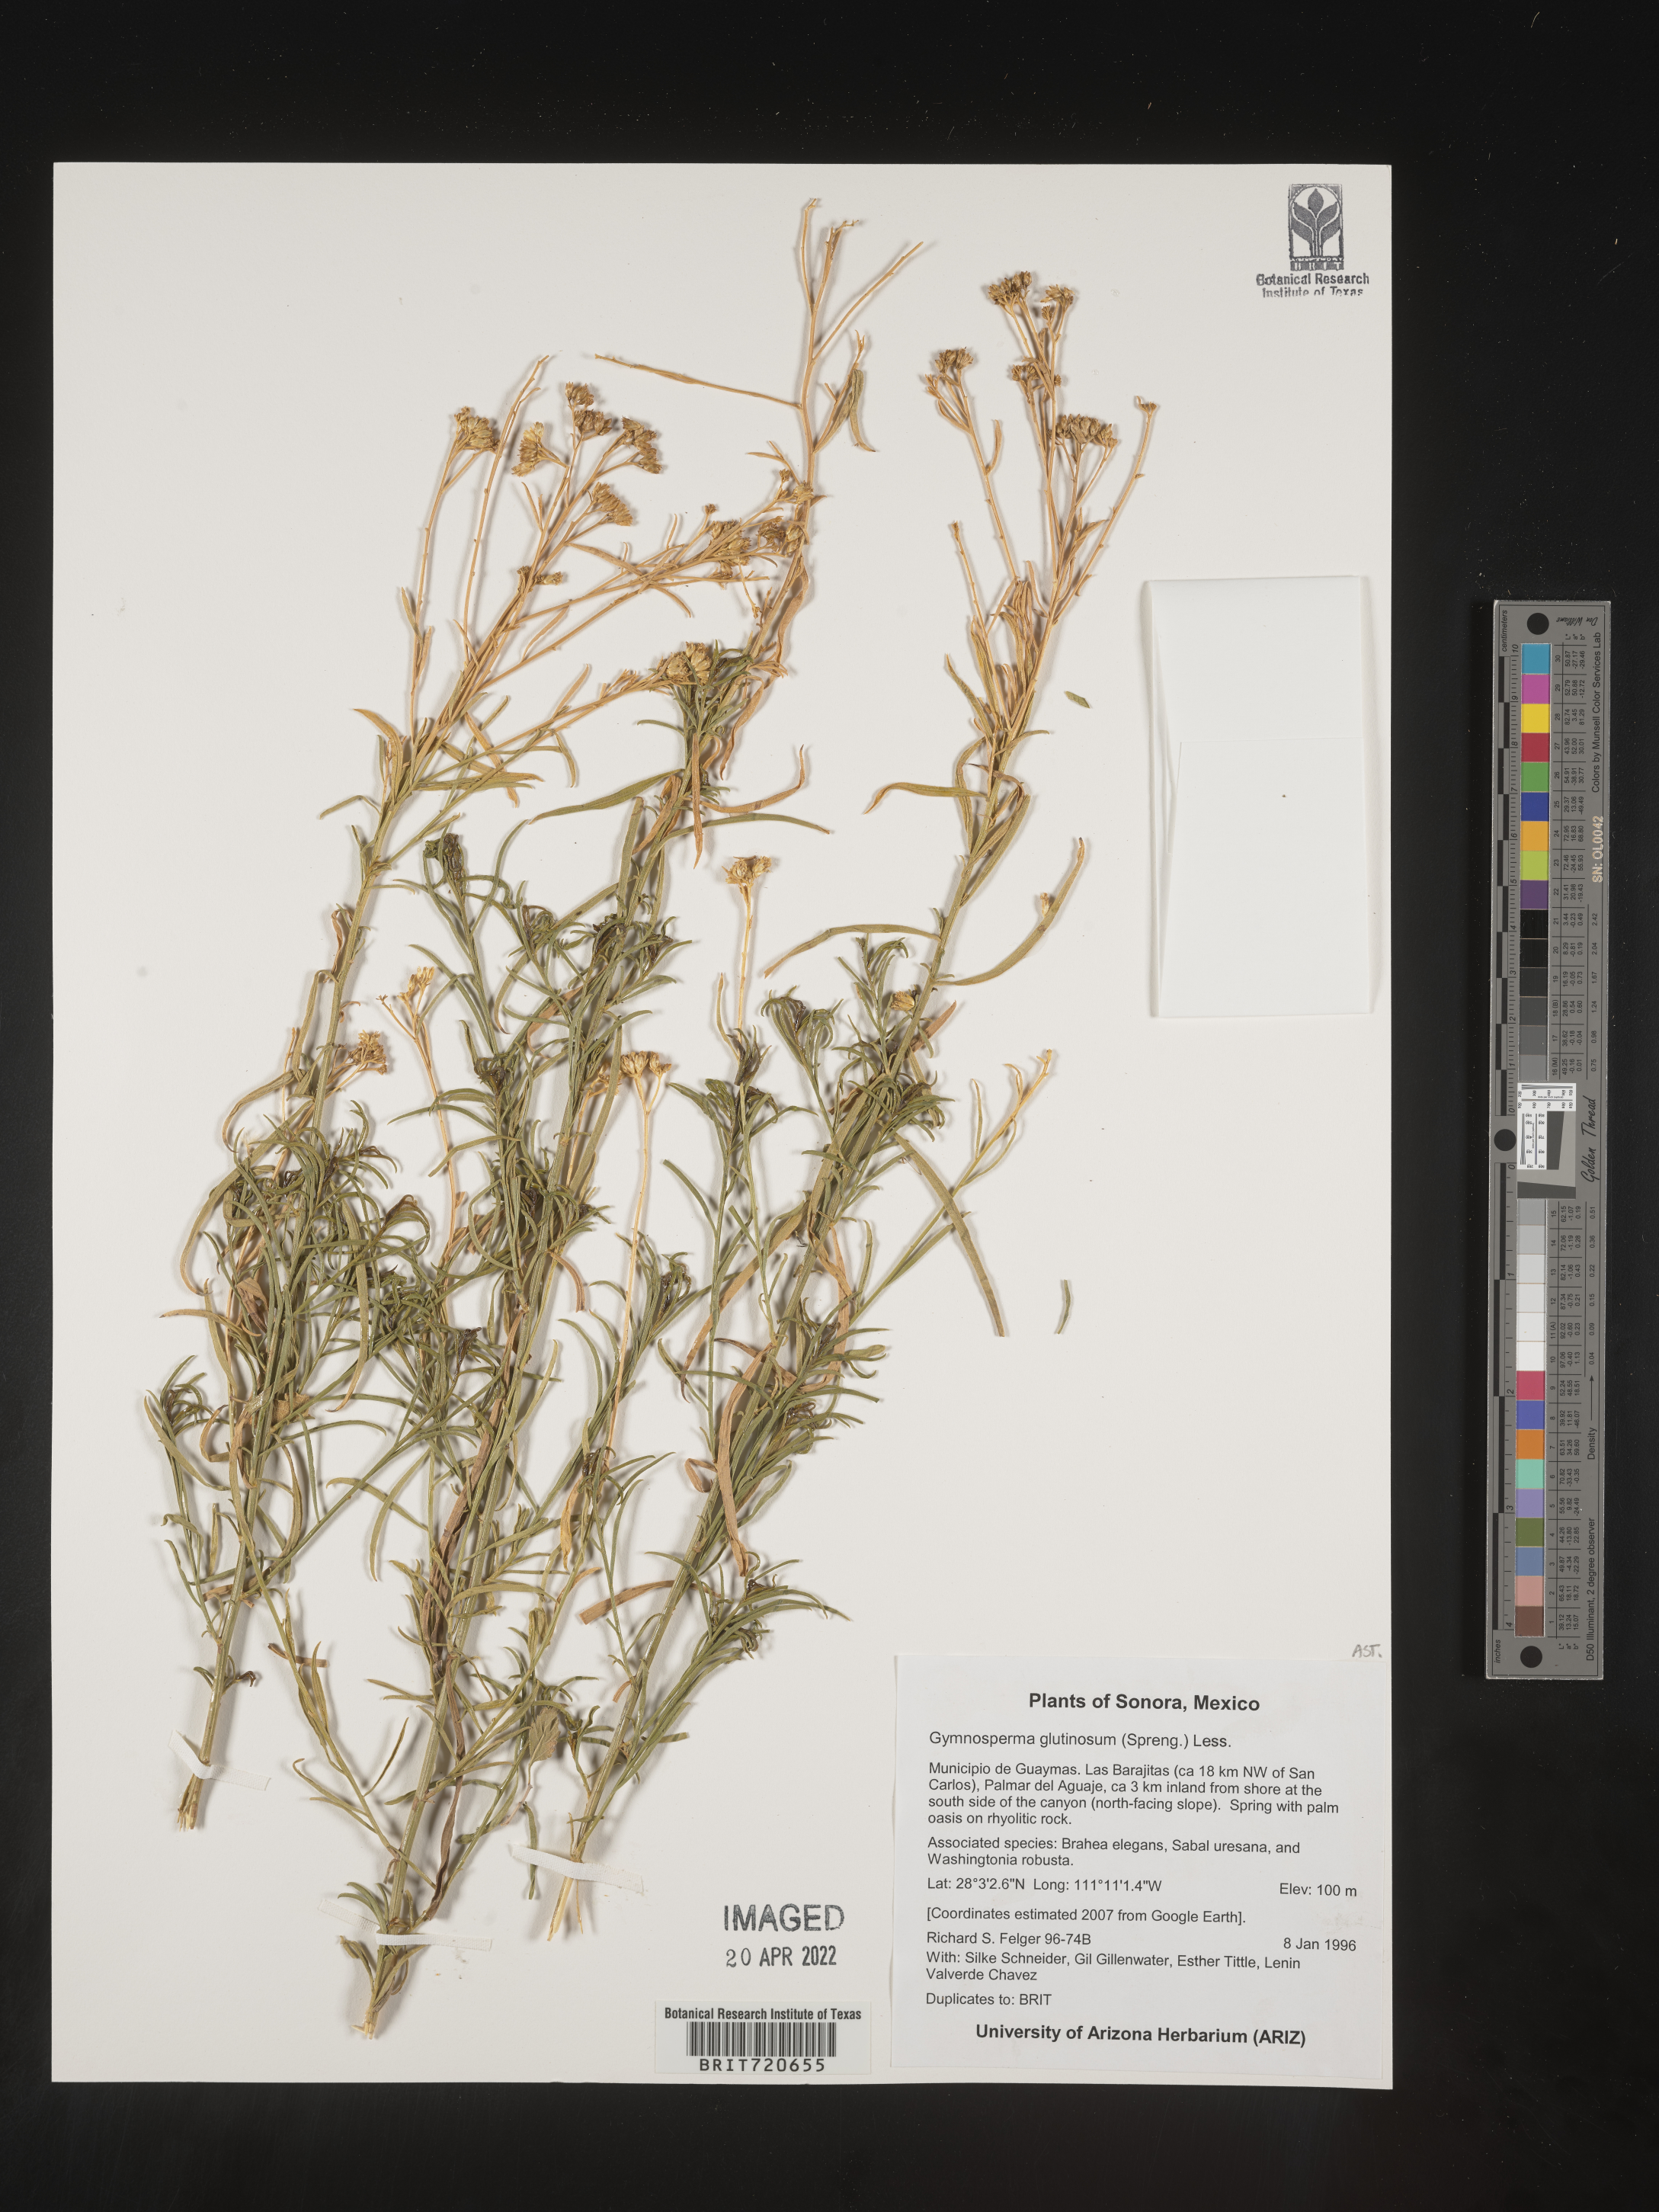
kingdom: Plantae
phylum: Tracheophyta
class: Magnoliopsida
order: Asterales
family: Asteraceae
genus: Gymnosperma
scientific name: Gymnosperma glutinosum
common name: Gumhead
